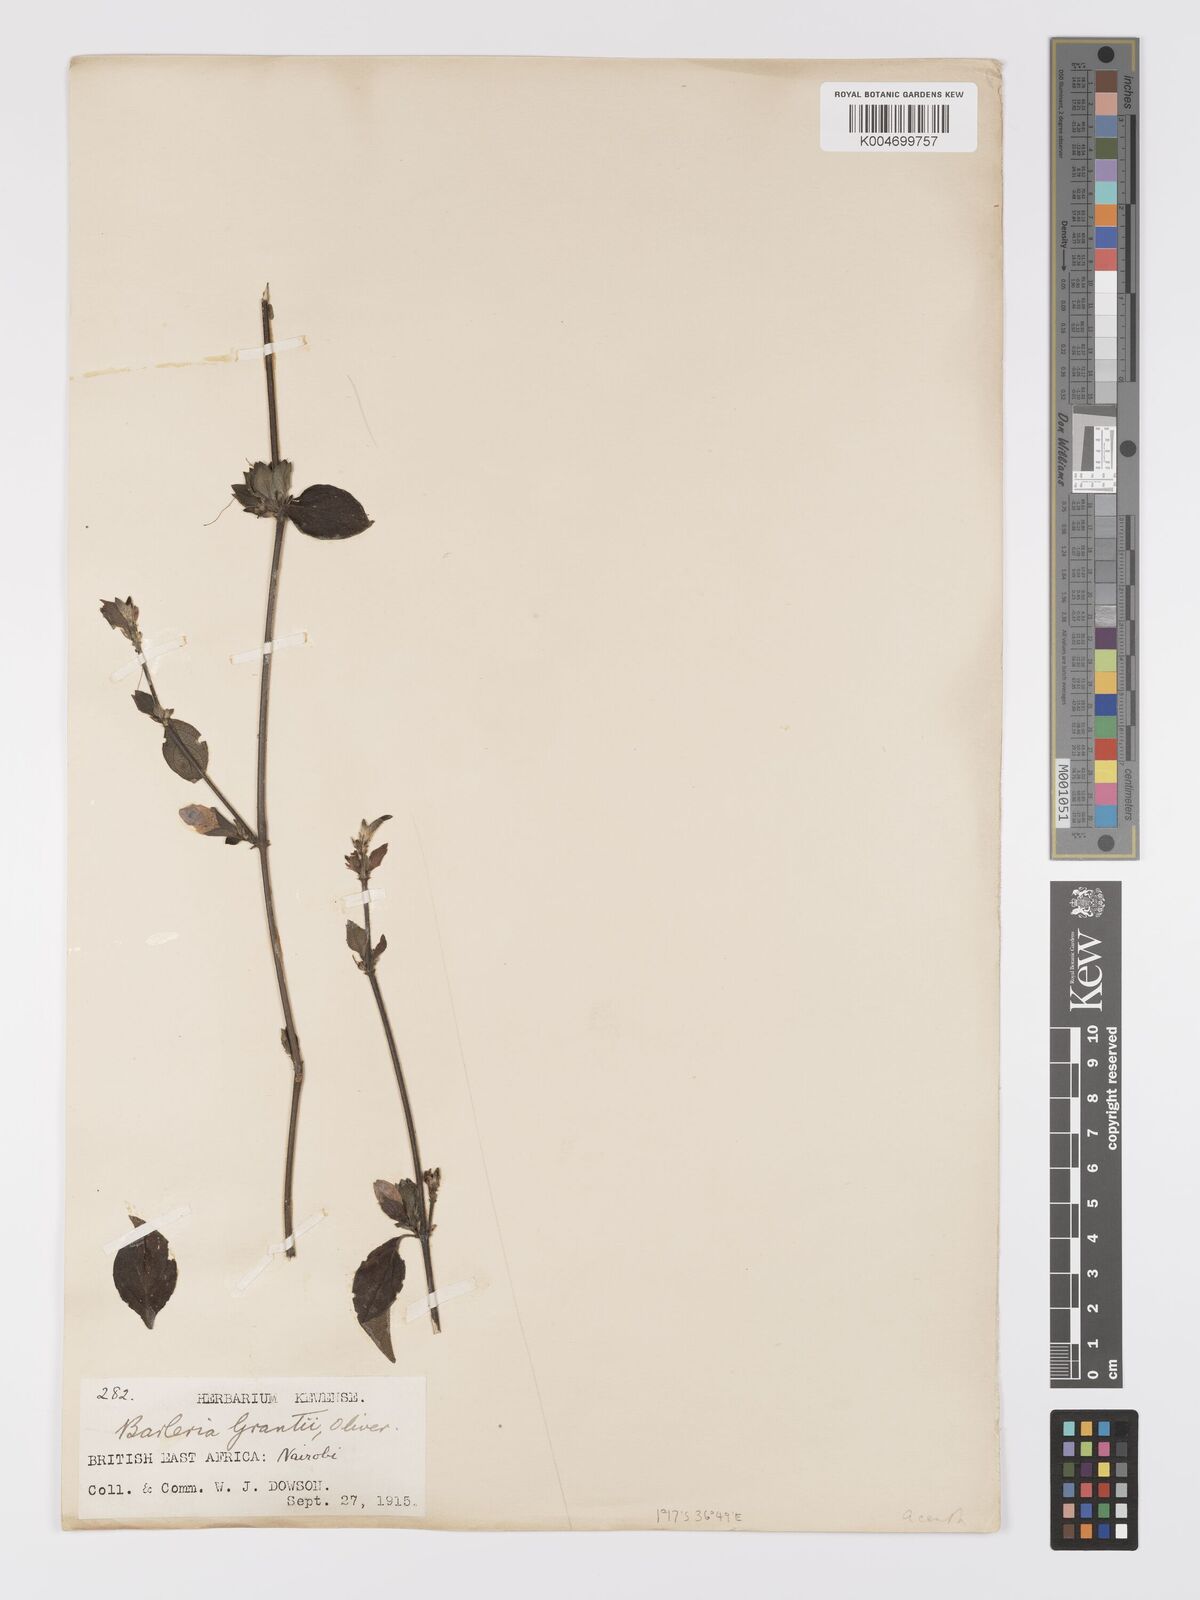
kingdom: Plantae
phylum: Tracheophyta
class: Magnoliopsida
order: Lamiales
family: Acanthaceae
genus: Barleria
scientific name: Barleria ventricosa
